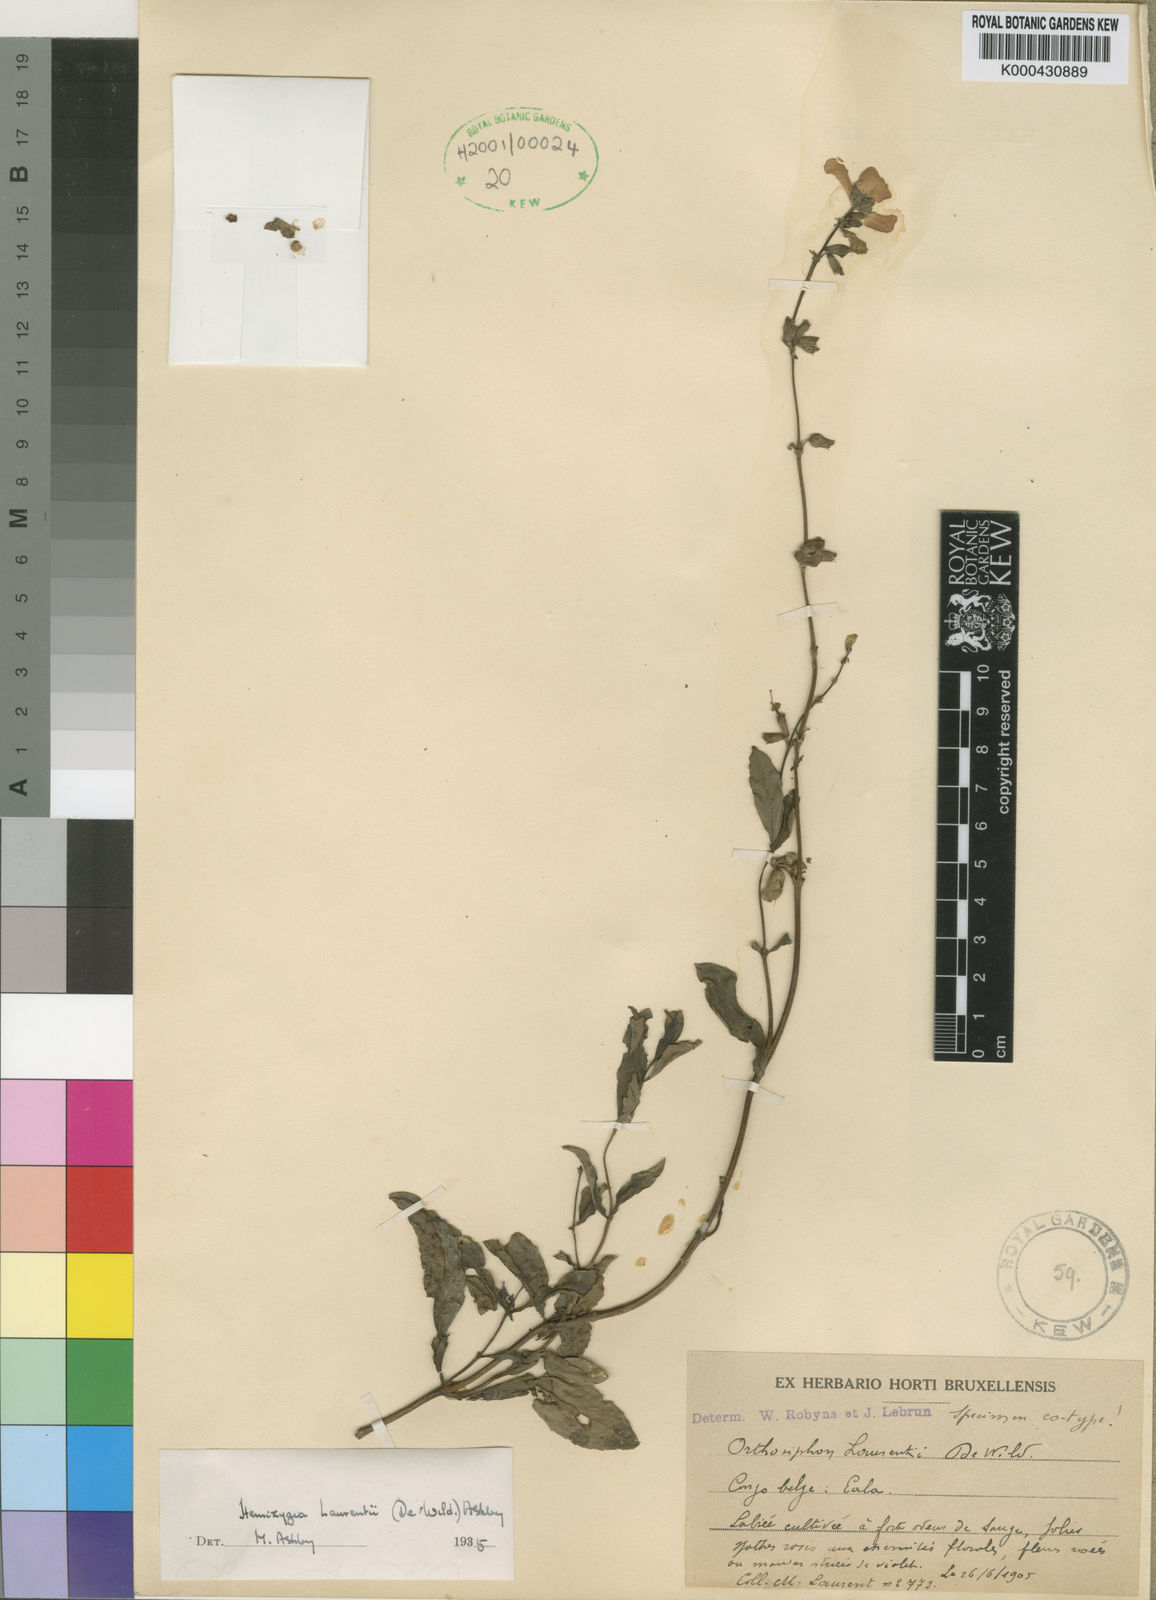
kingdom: Plantae
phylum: Tracheophyta
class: Magnoliopsida
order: Lamiales
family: Lamiaceae
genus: Syncolostemon
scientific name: Syncolostemon welwitschii
